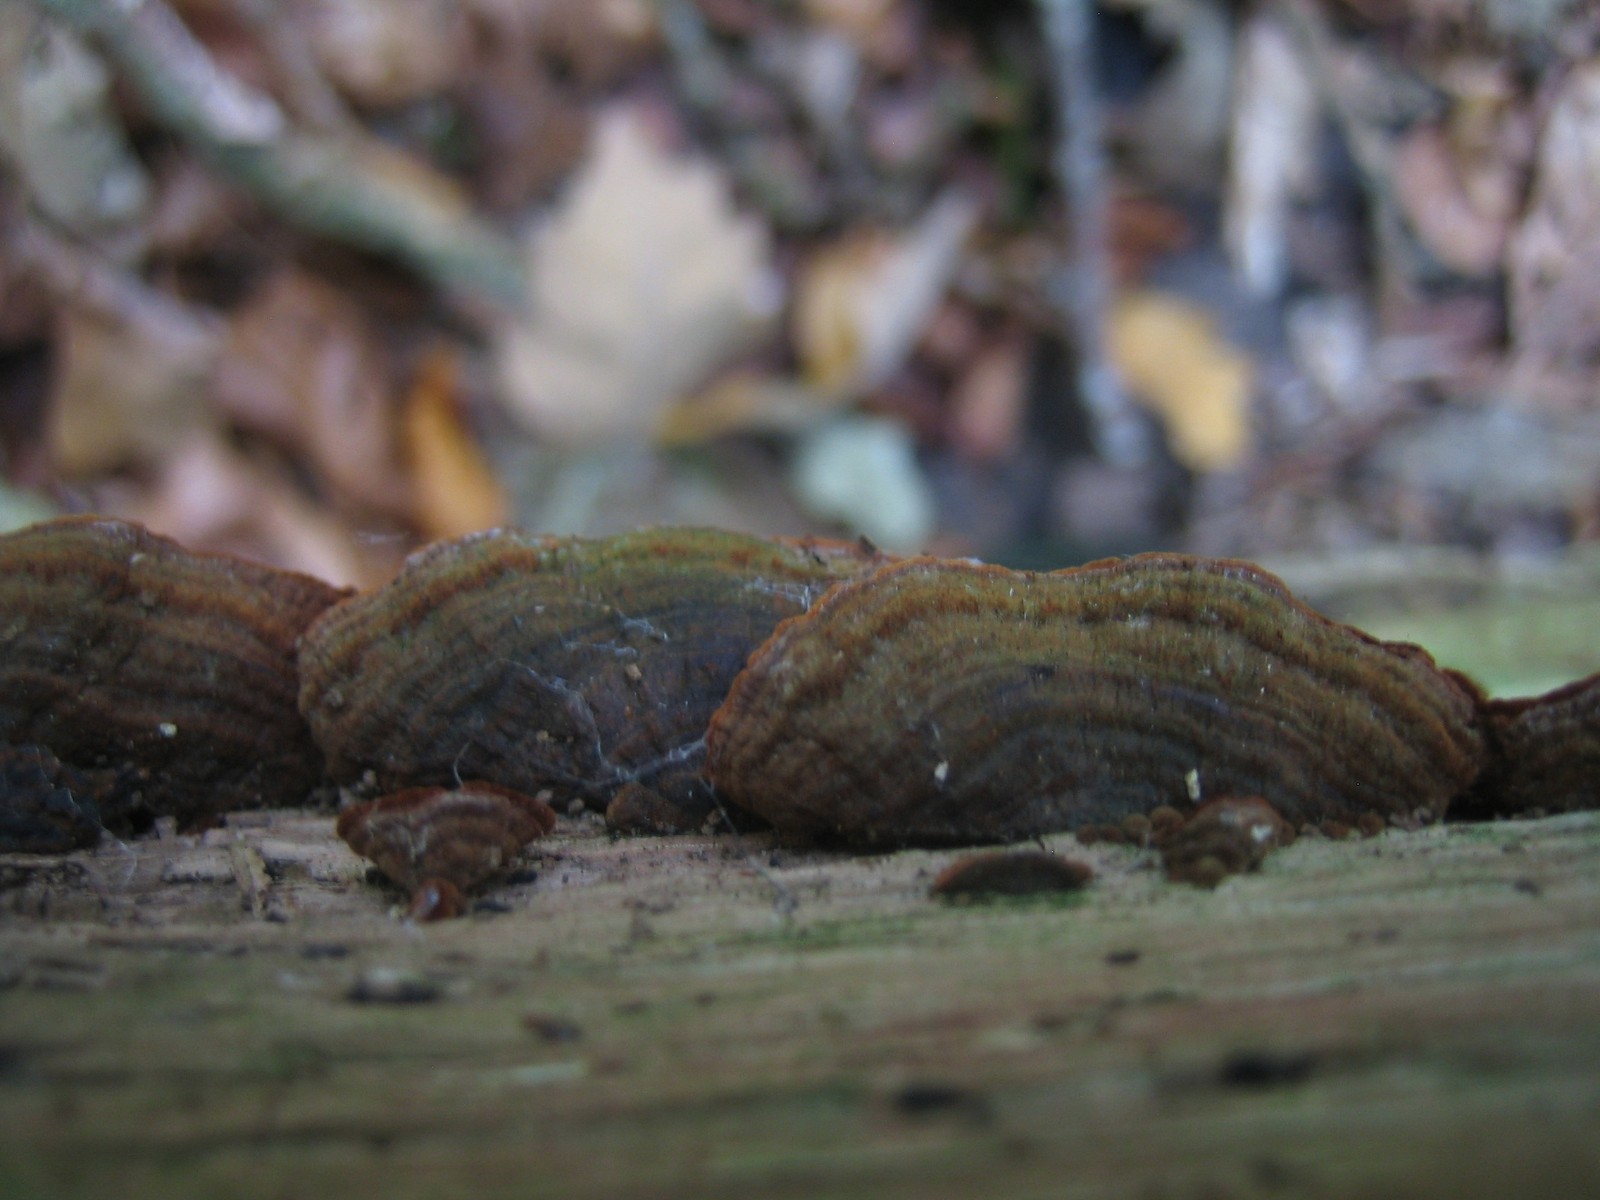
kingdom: Fungi
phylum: Basidiomycota
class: Agaricomycetes
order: Hymenochaetales
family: Hymenochaetaceae
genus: Hymenochaete
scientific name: Hymenochaete rubiginosa
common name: stiv ruslædersvamp
